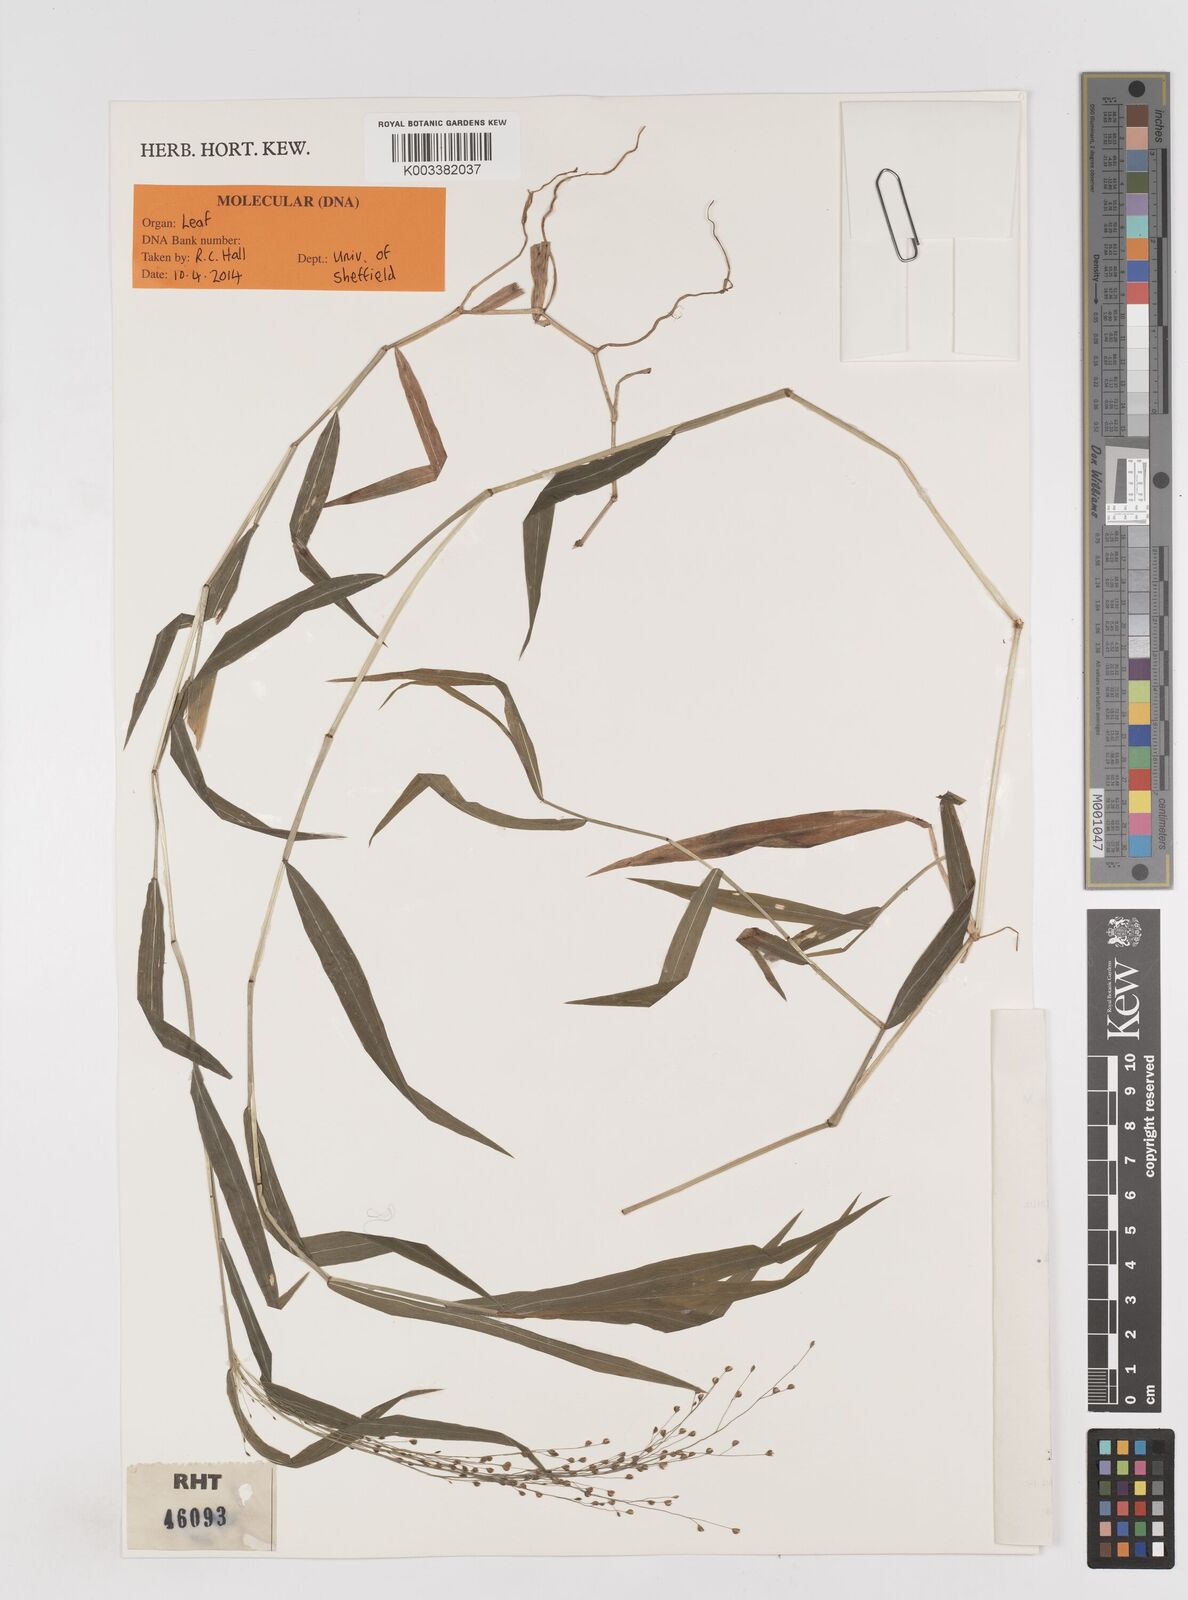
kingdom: Plantae
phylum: Tracheophyta
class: Liliopsida
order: Poales
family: Poaceae
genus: Cyrtococcum
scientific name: Cyrtococcum deccanense
